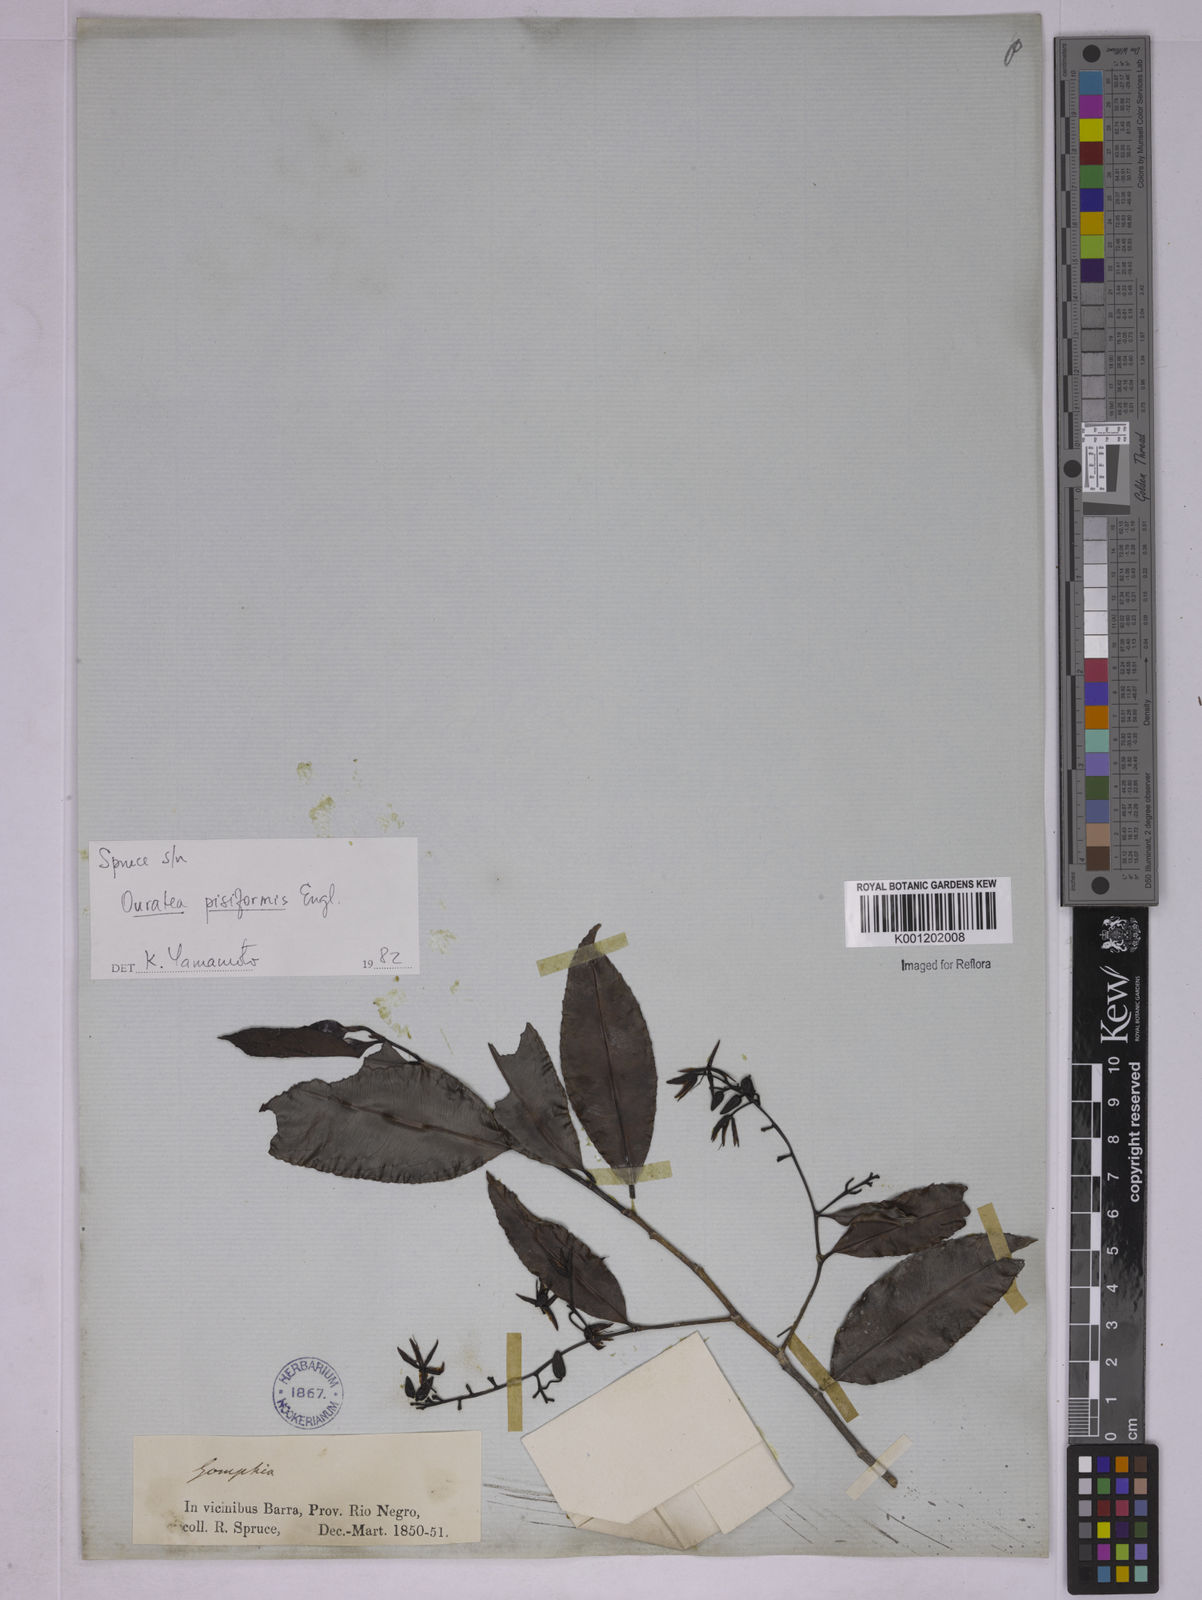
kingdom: Plantae
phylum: Tracheophyta
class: Magnoliopsida
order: Malpighiales
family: Ochnaceae
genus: Ouratea
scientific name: Ouratea pisiformis
